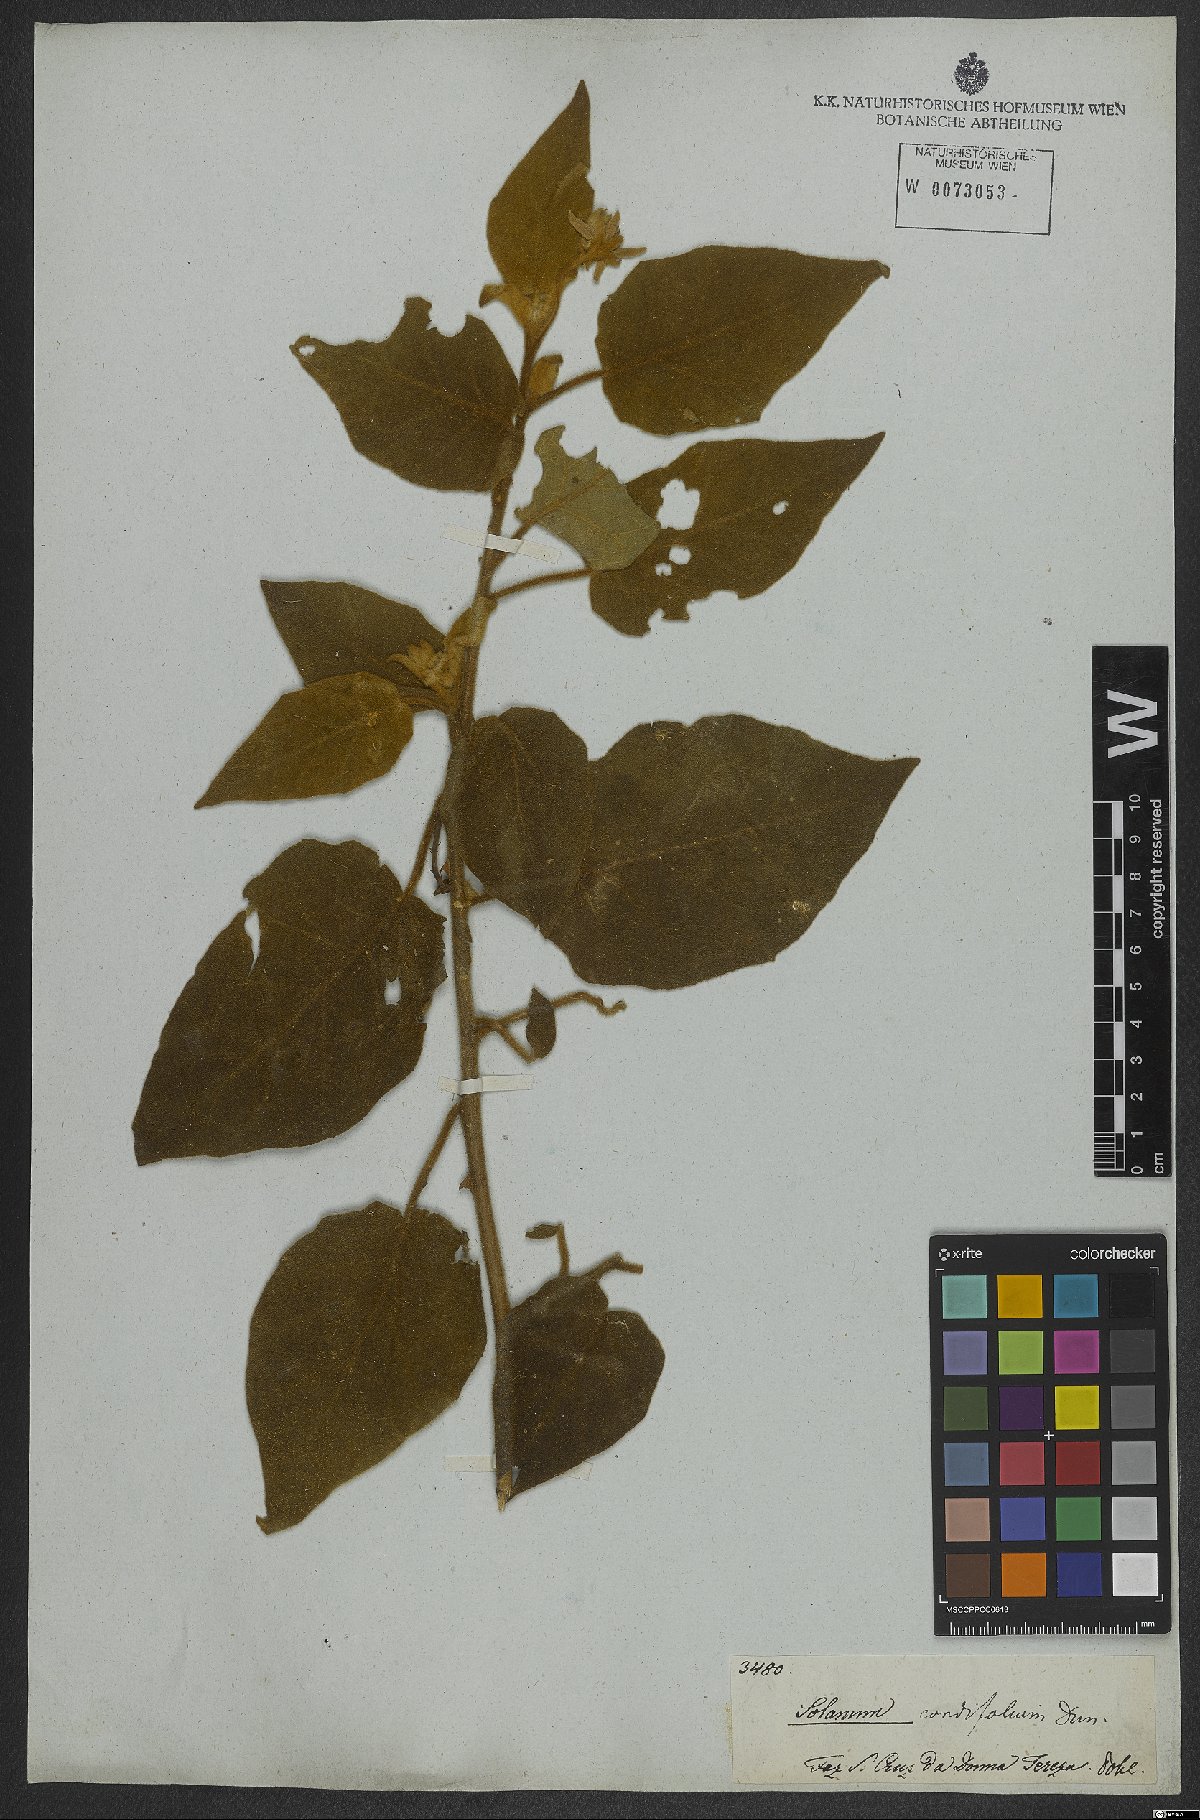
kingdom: Plantae
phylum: Tracheophyta
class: Magnoliopsida
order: Solanales
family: Solanaceae
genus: Solanum
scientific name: Solanum cordifolium
